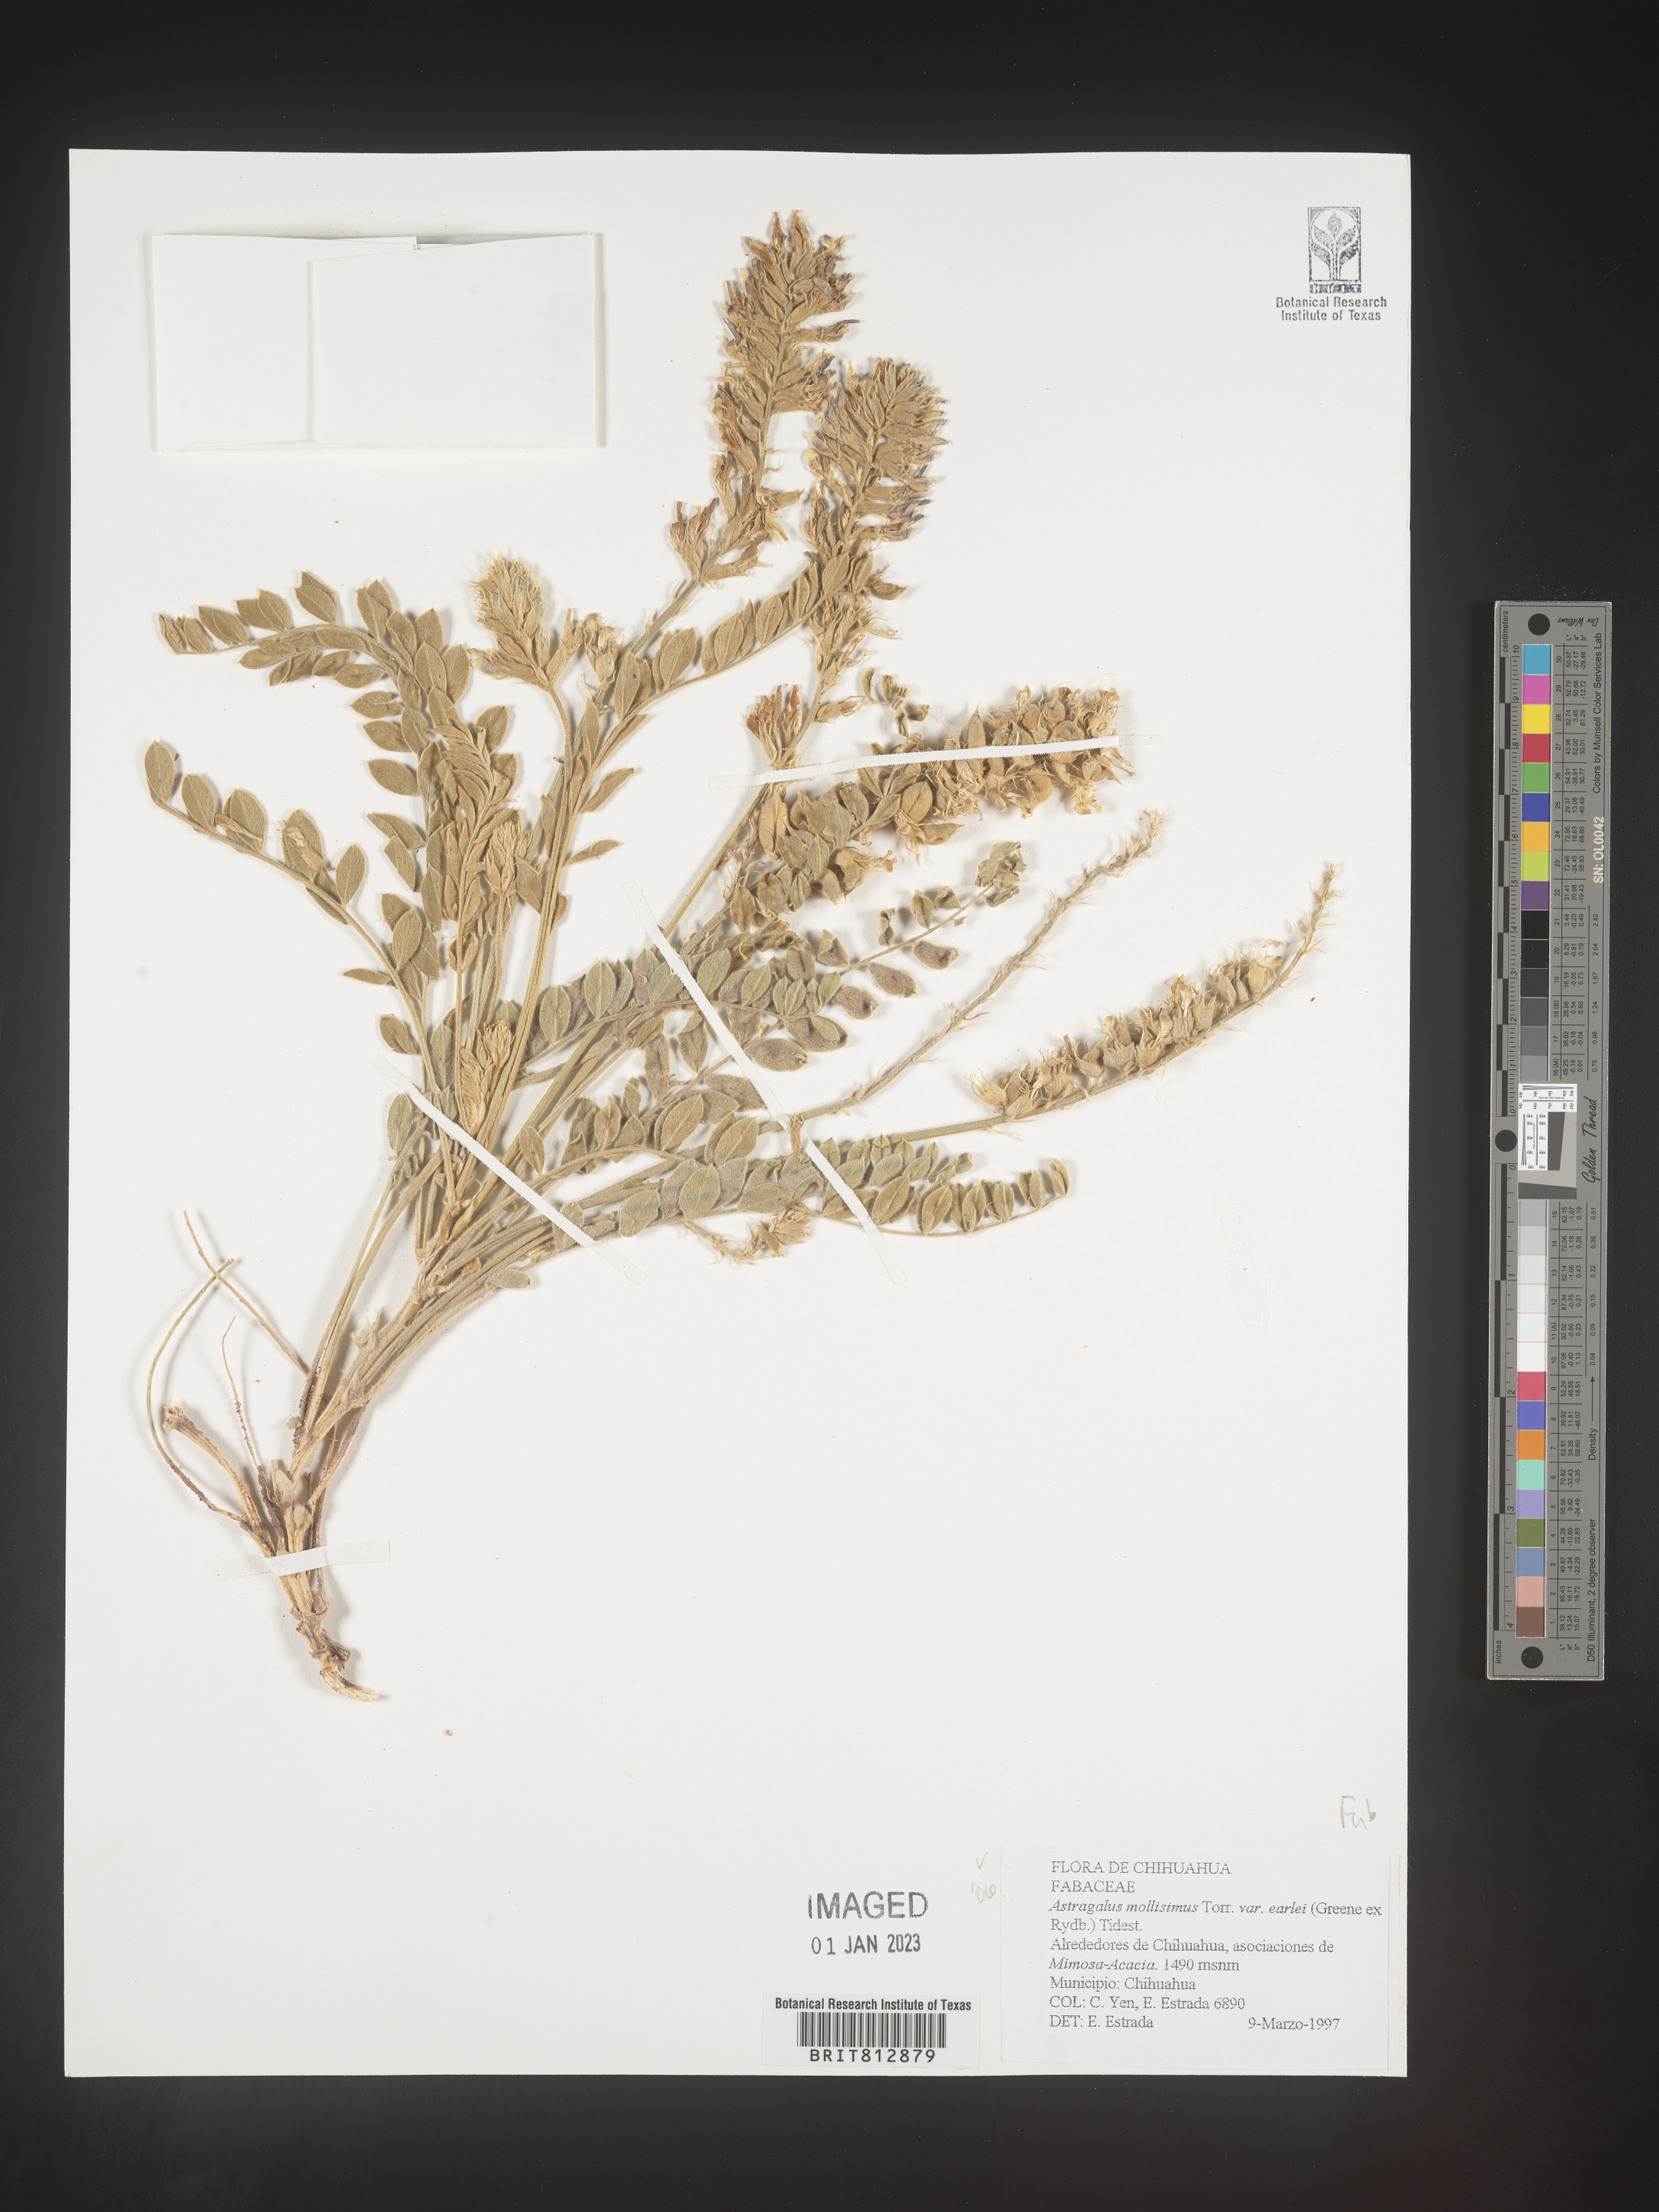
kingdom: Plantae
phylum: Tracheophyta
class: Magnoliopsida
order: Fabales
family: Fabaceae
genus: Astragalus
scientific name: Astragalus
